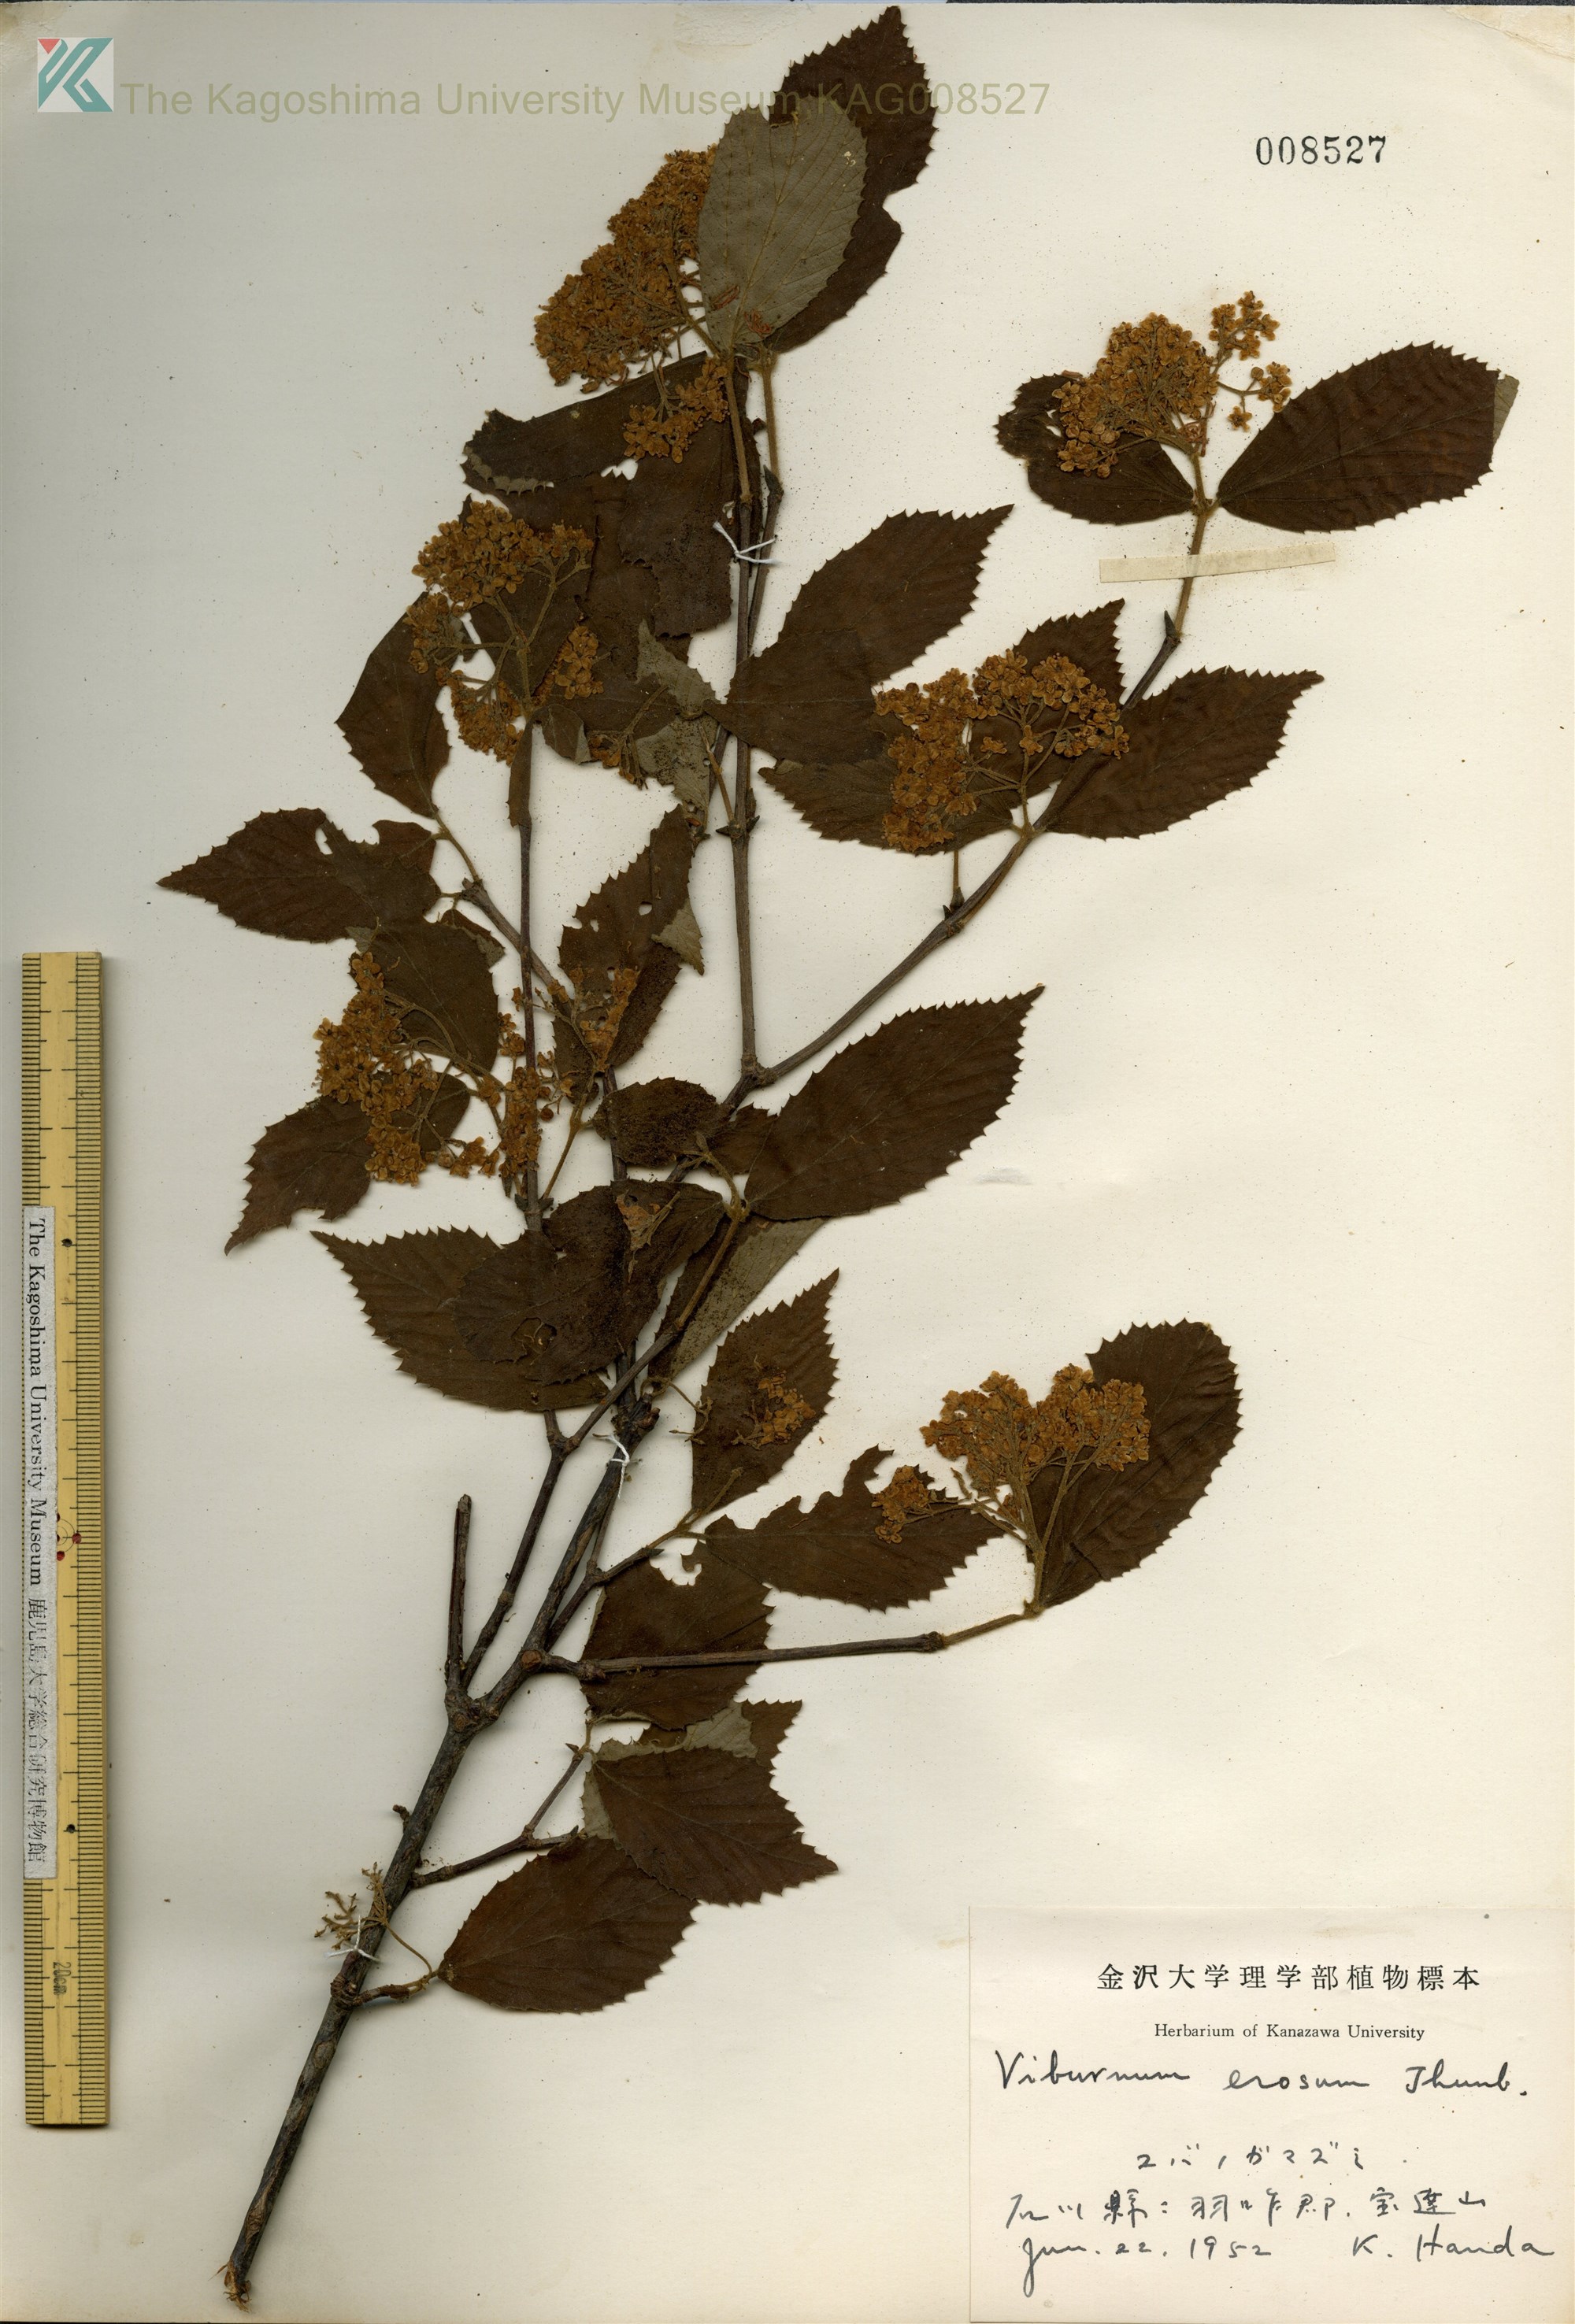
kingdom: Plantae
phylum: Tracheophyta
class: Magnoliopsida
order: Dipsacales
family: Viburnaceae
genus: Viburnum
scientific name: Viburnum erosum
